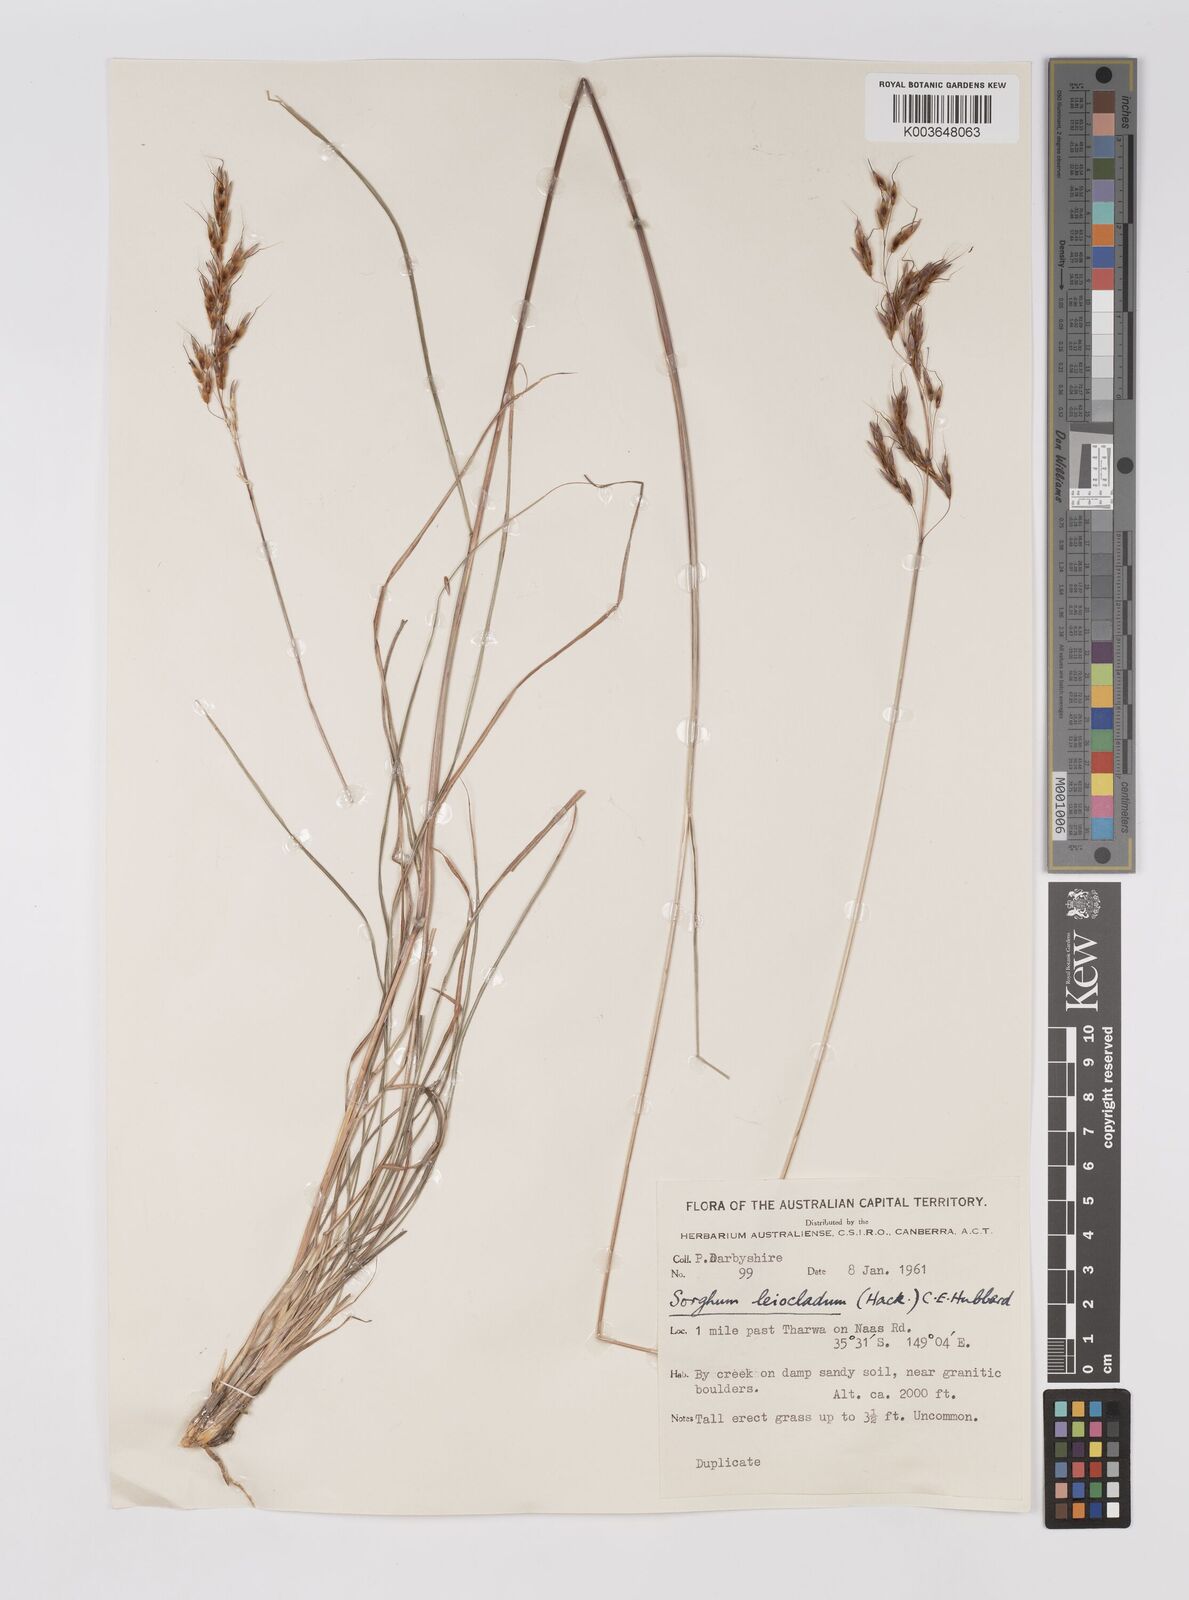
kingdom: Plantae
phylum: Tracheophyta
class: Liliopsida
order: Poales
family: Poaceae
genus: Sarga
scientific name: Sarga leioclada
